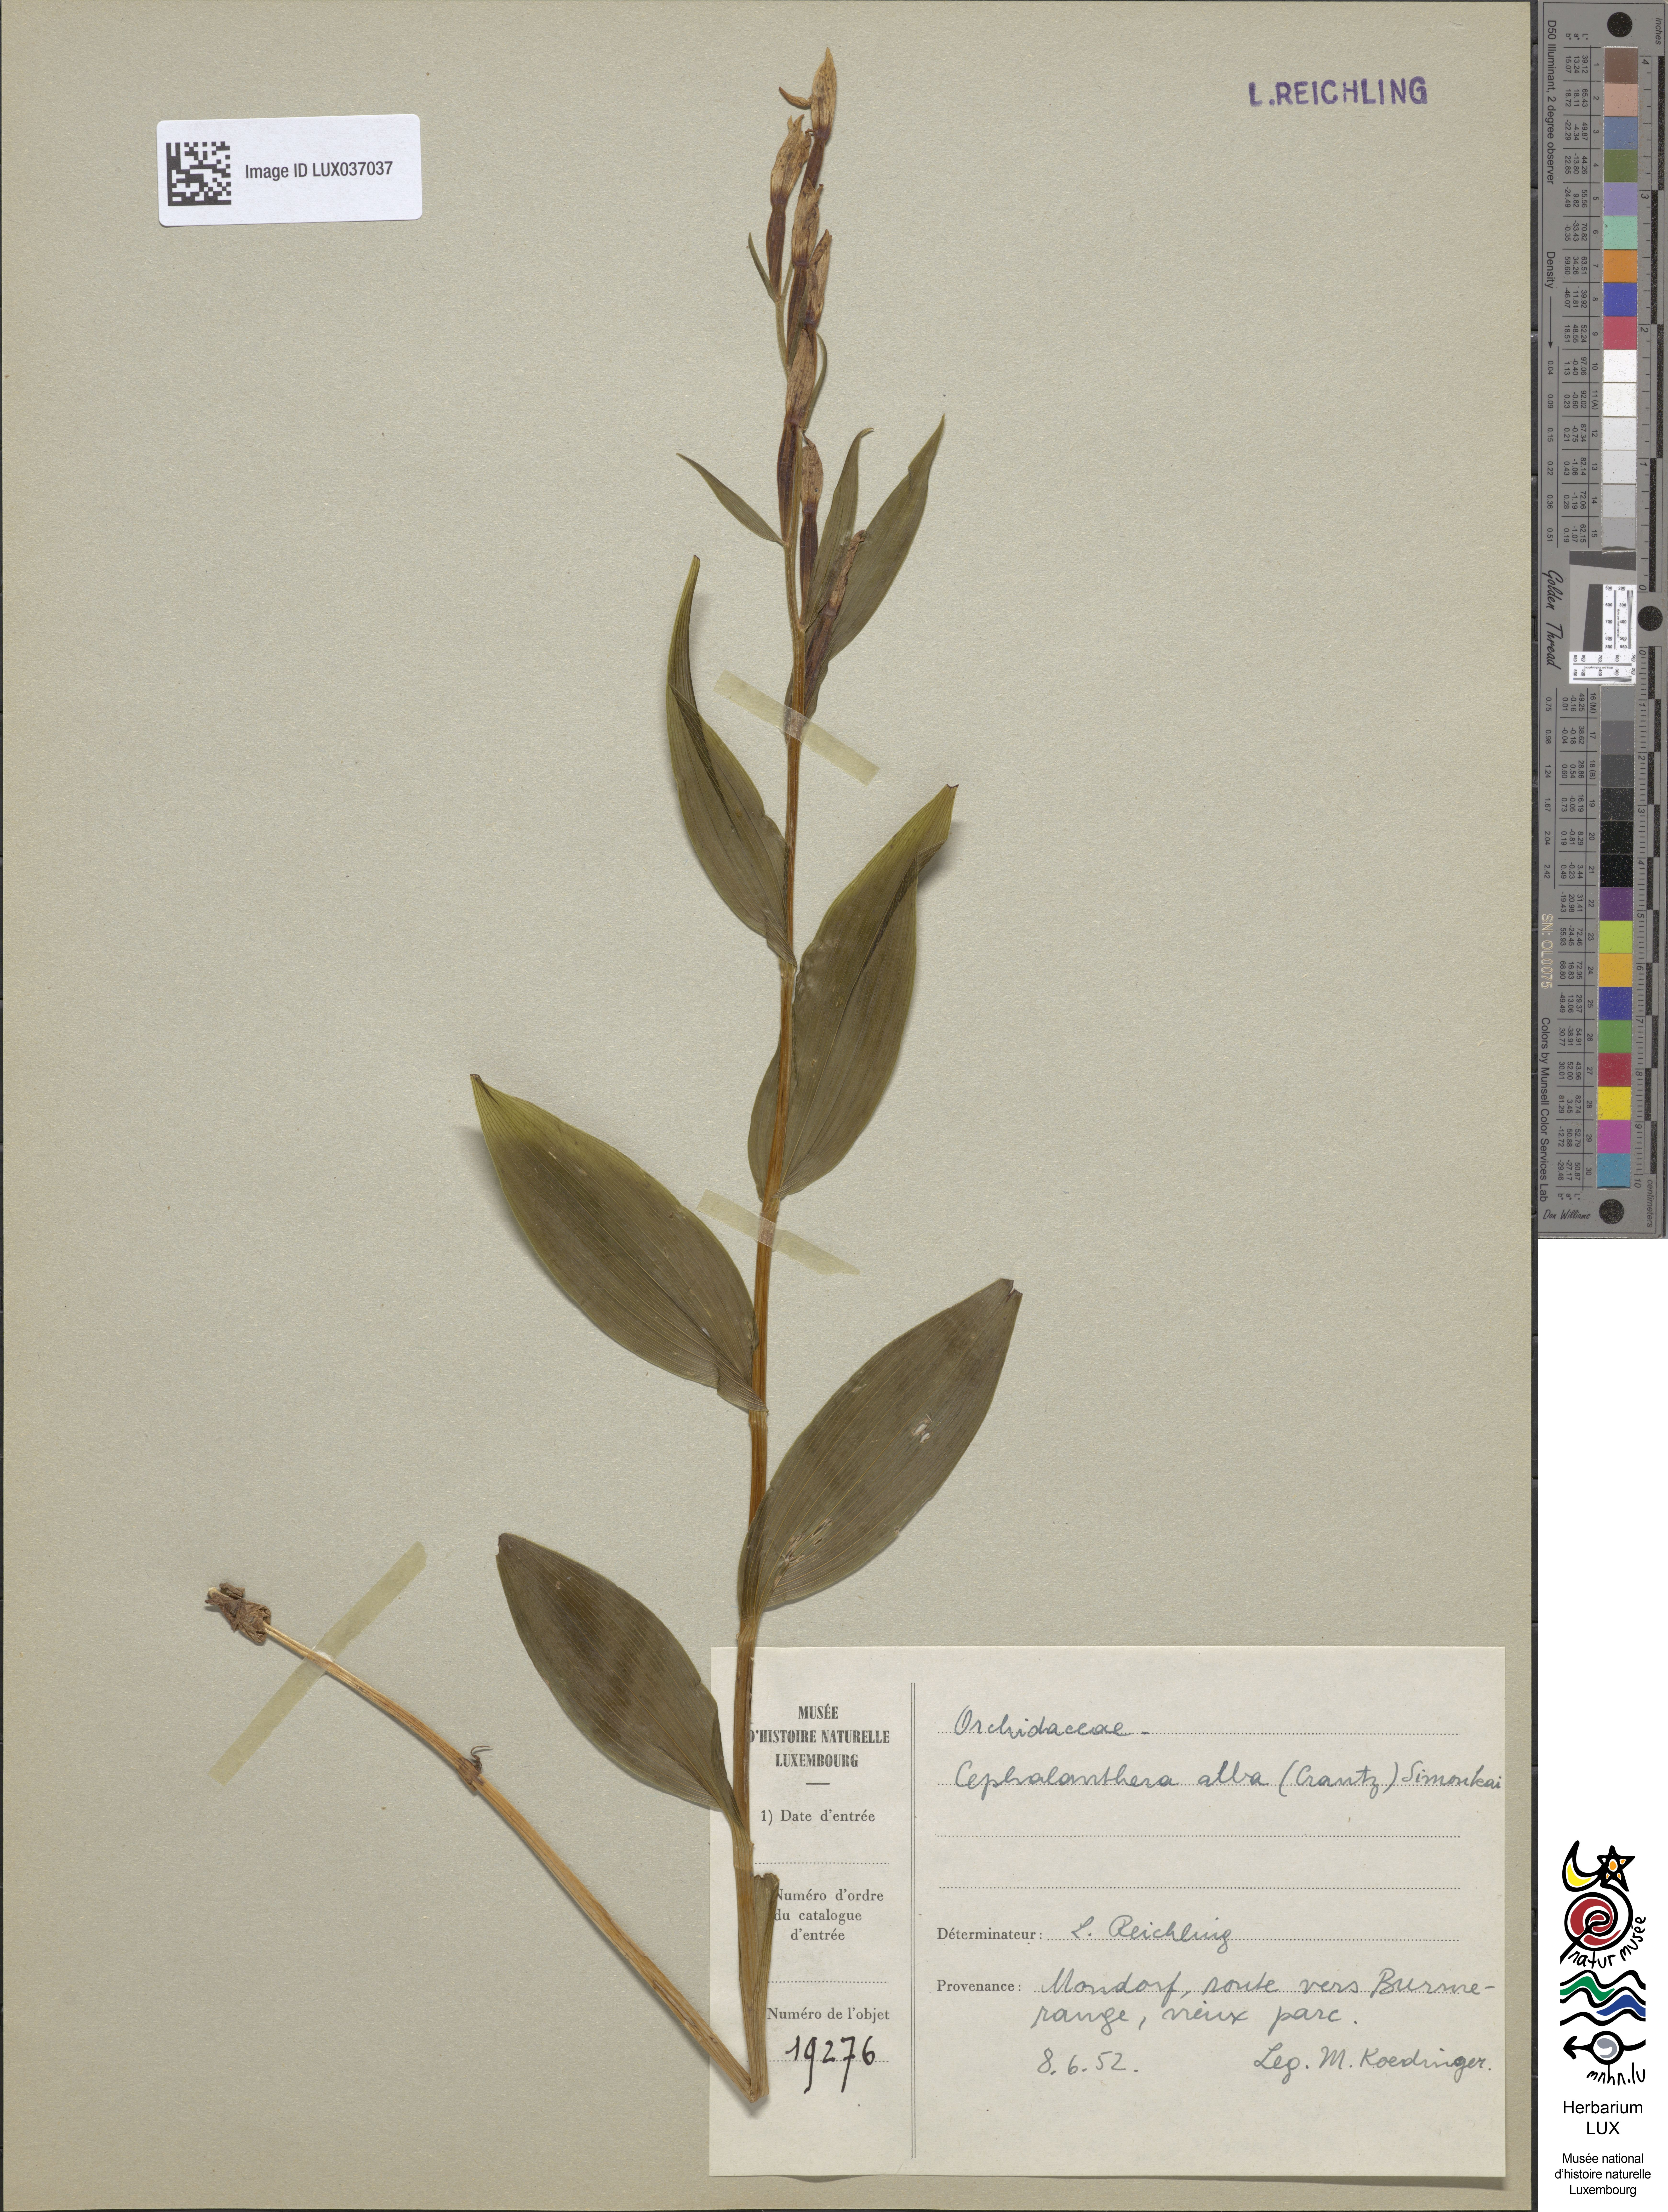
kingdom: Plantae
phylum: Tracheophyta
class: Liliopsida
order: Asparagales
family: Orchidaceae
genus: Cephalanthera
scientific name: Cephalanthera damasonium
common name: White helleborine
